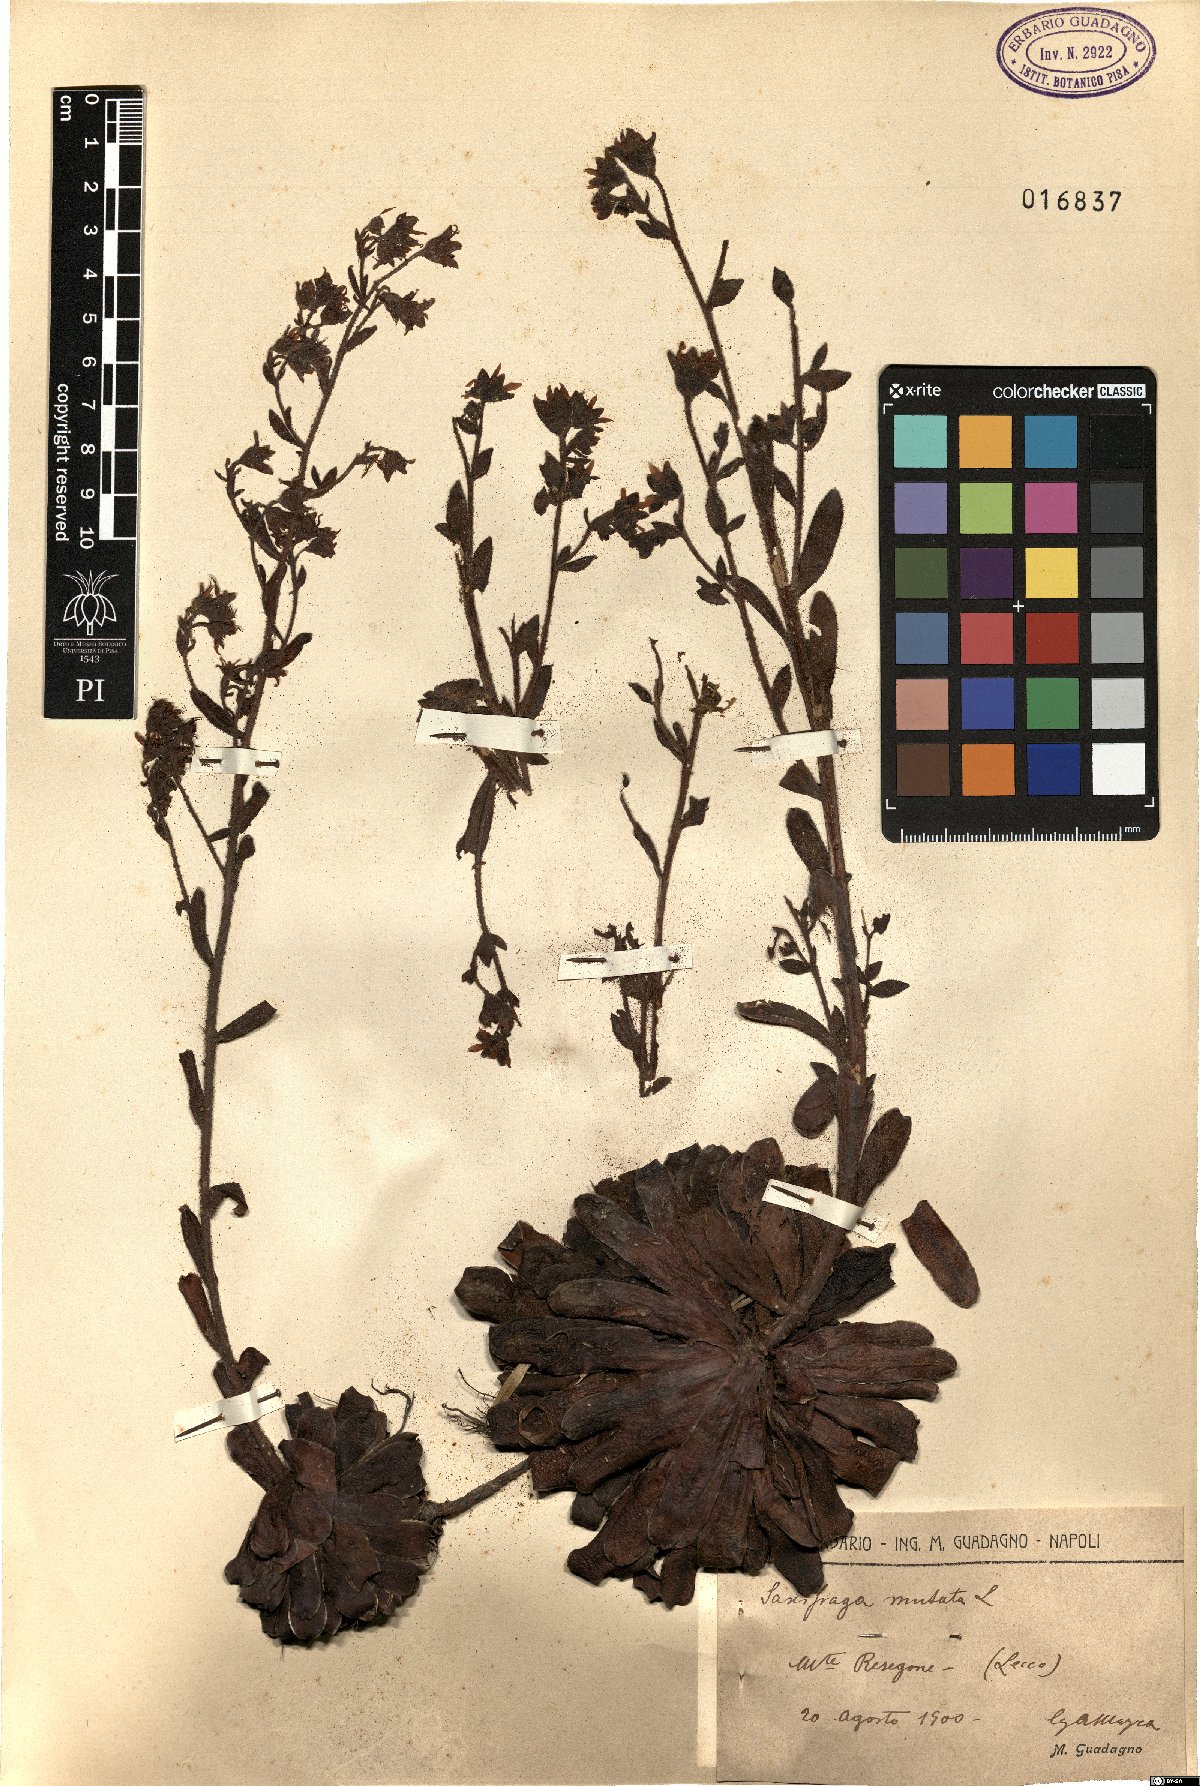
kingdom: Plantae
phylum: Tracheophyta
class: Magnoliopsida
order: Saxifragales
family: Saxifragaceae
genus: Saxifraga
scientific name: Saxifraga mutata
